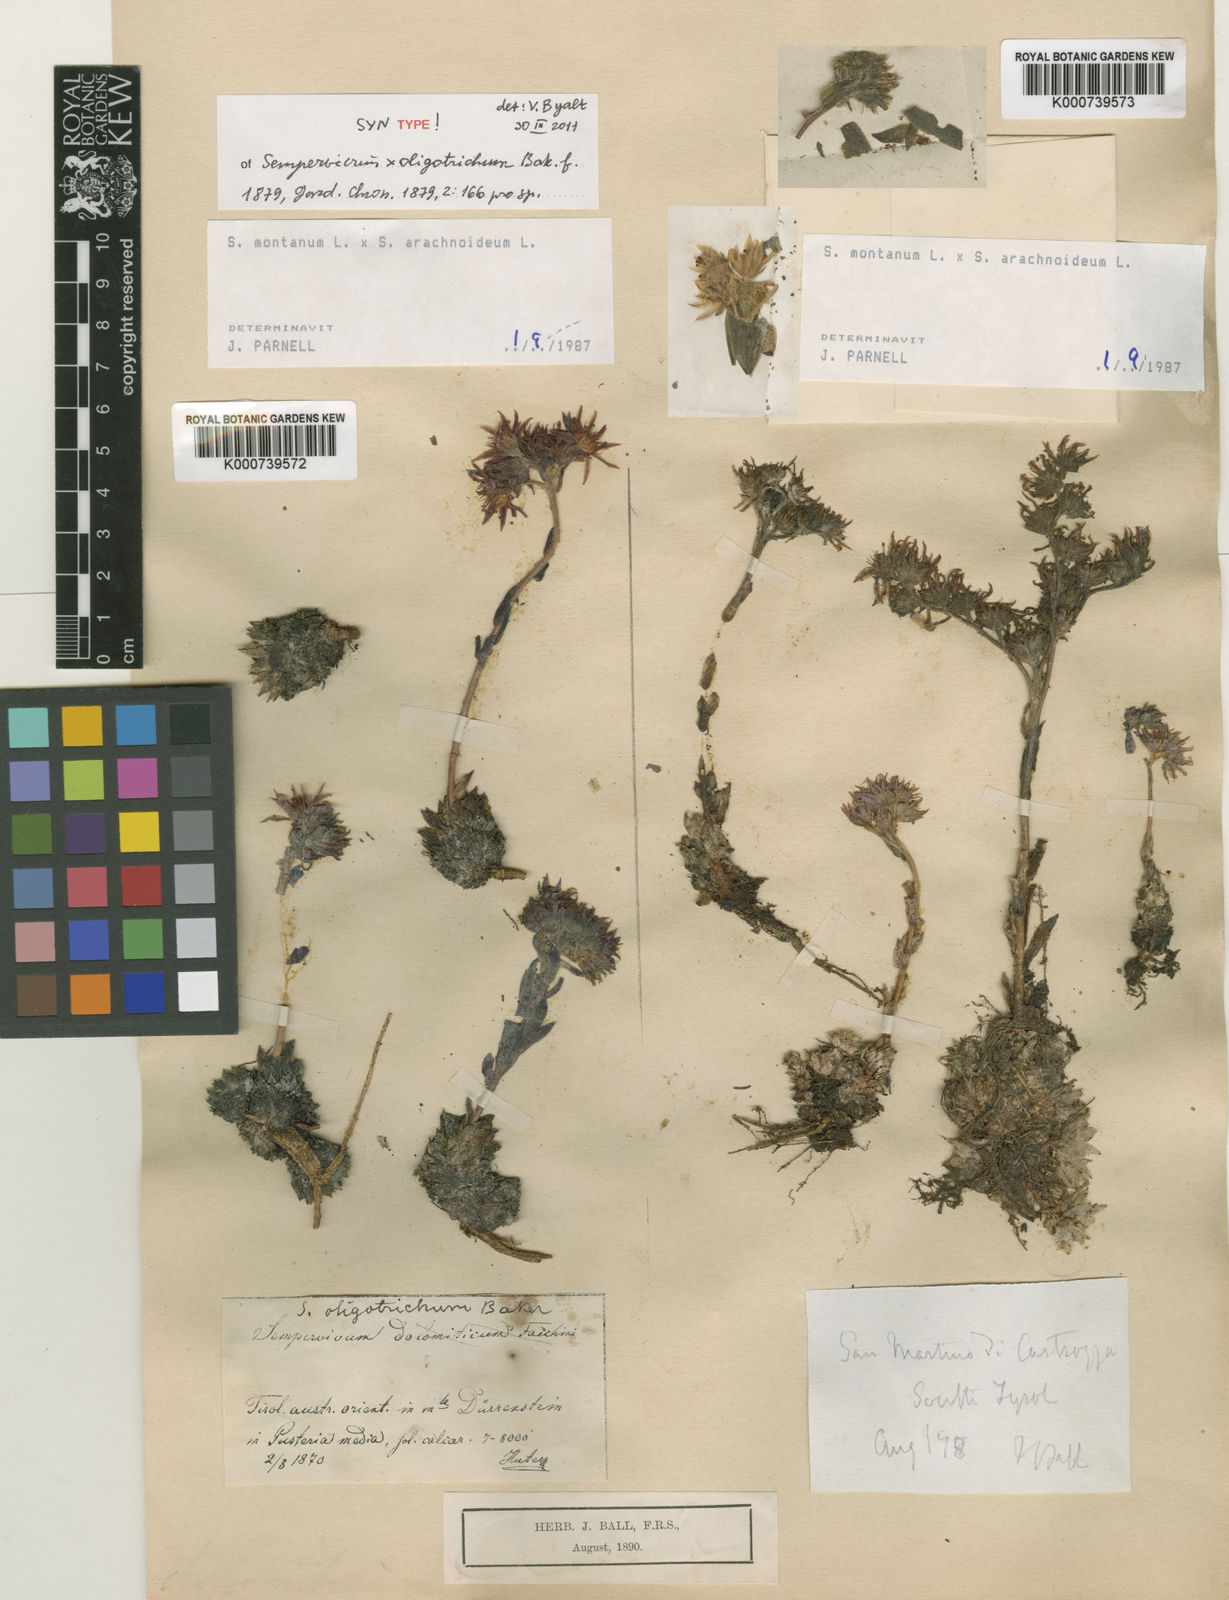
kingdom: Plantae
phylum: Tracheophyta
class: Magnoliopsida
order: Saxifragales
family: Crassulaceae
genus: Sempervivum
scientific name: Sempervivum barbulatum
